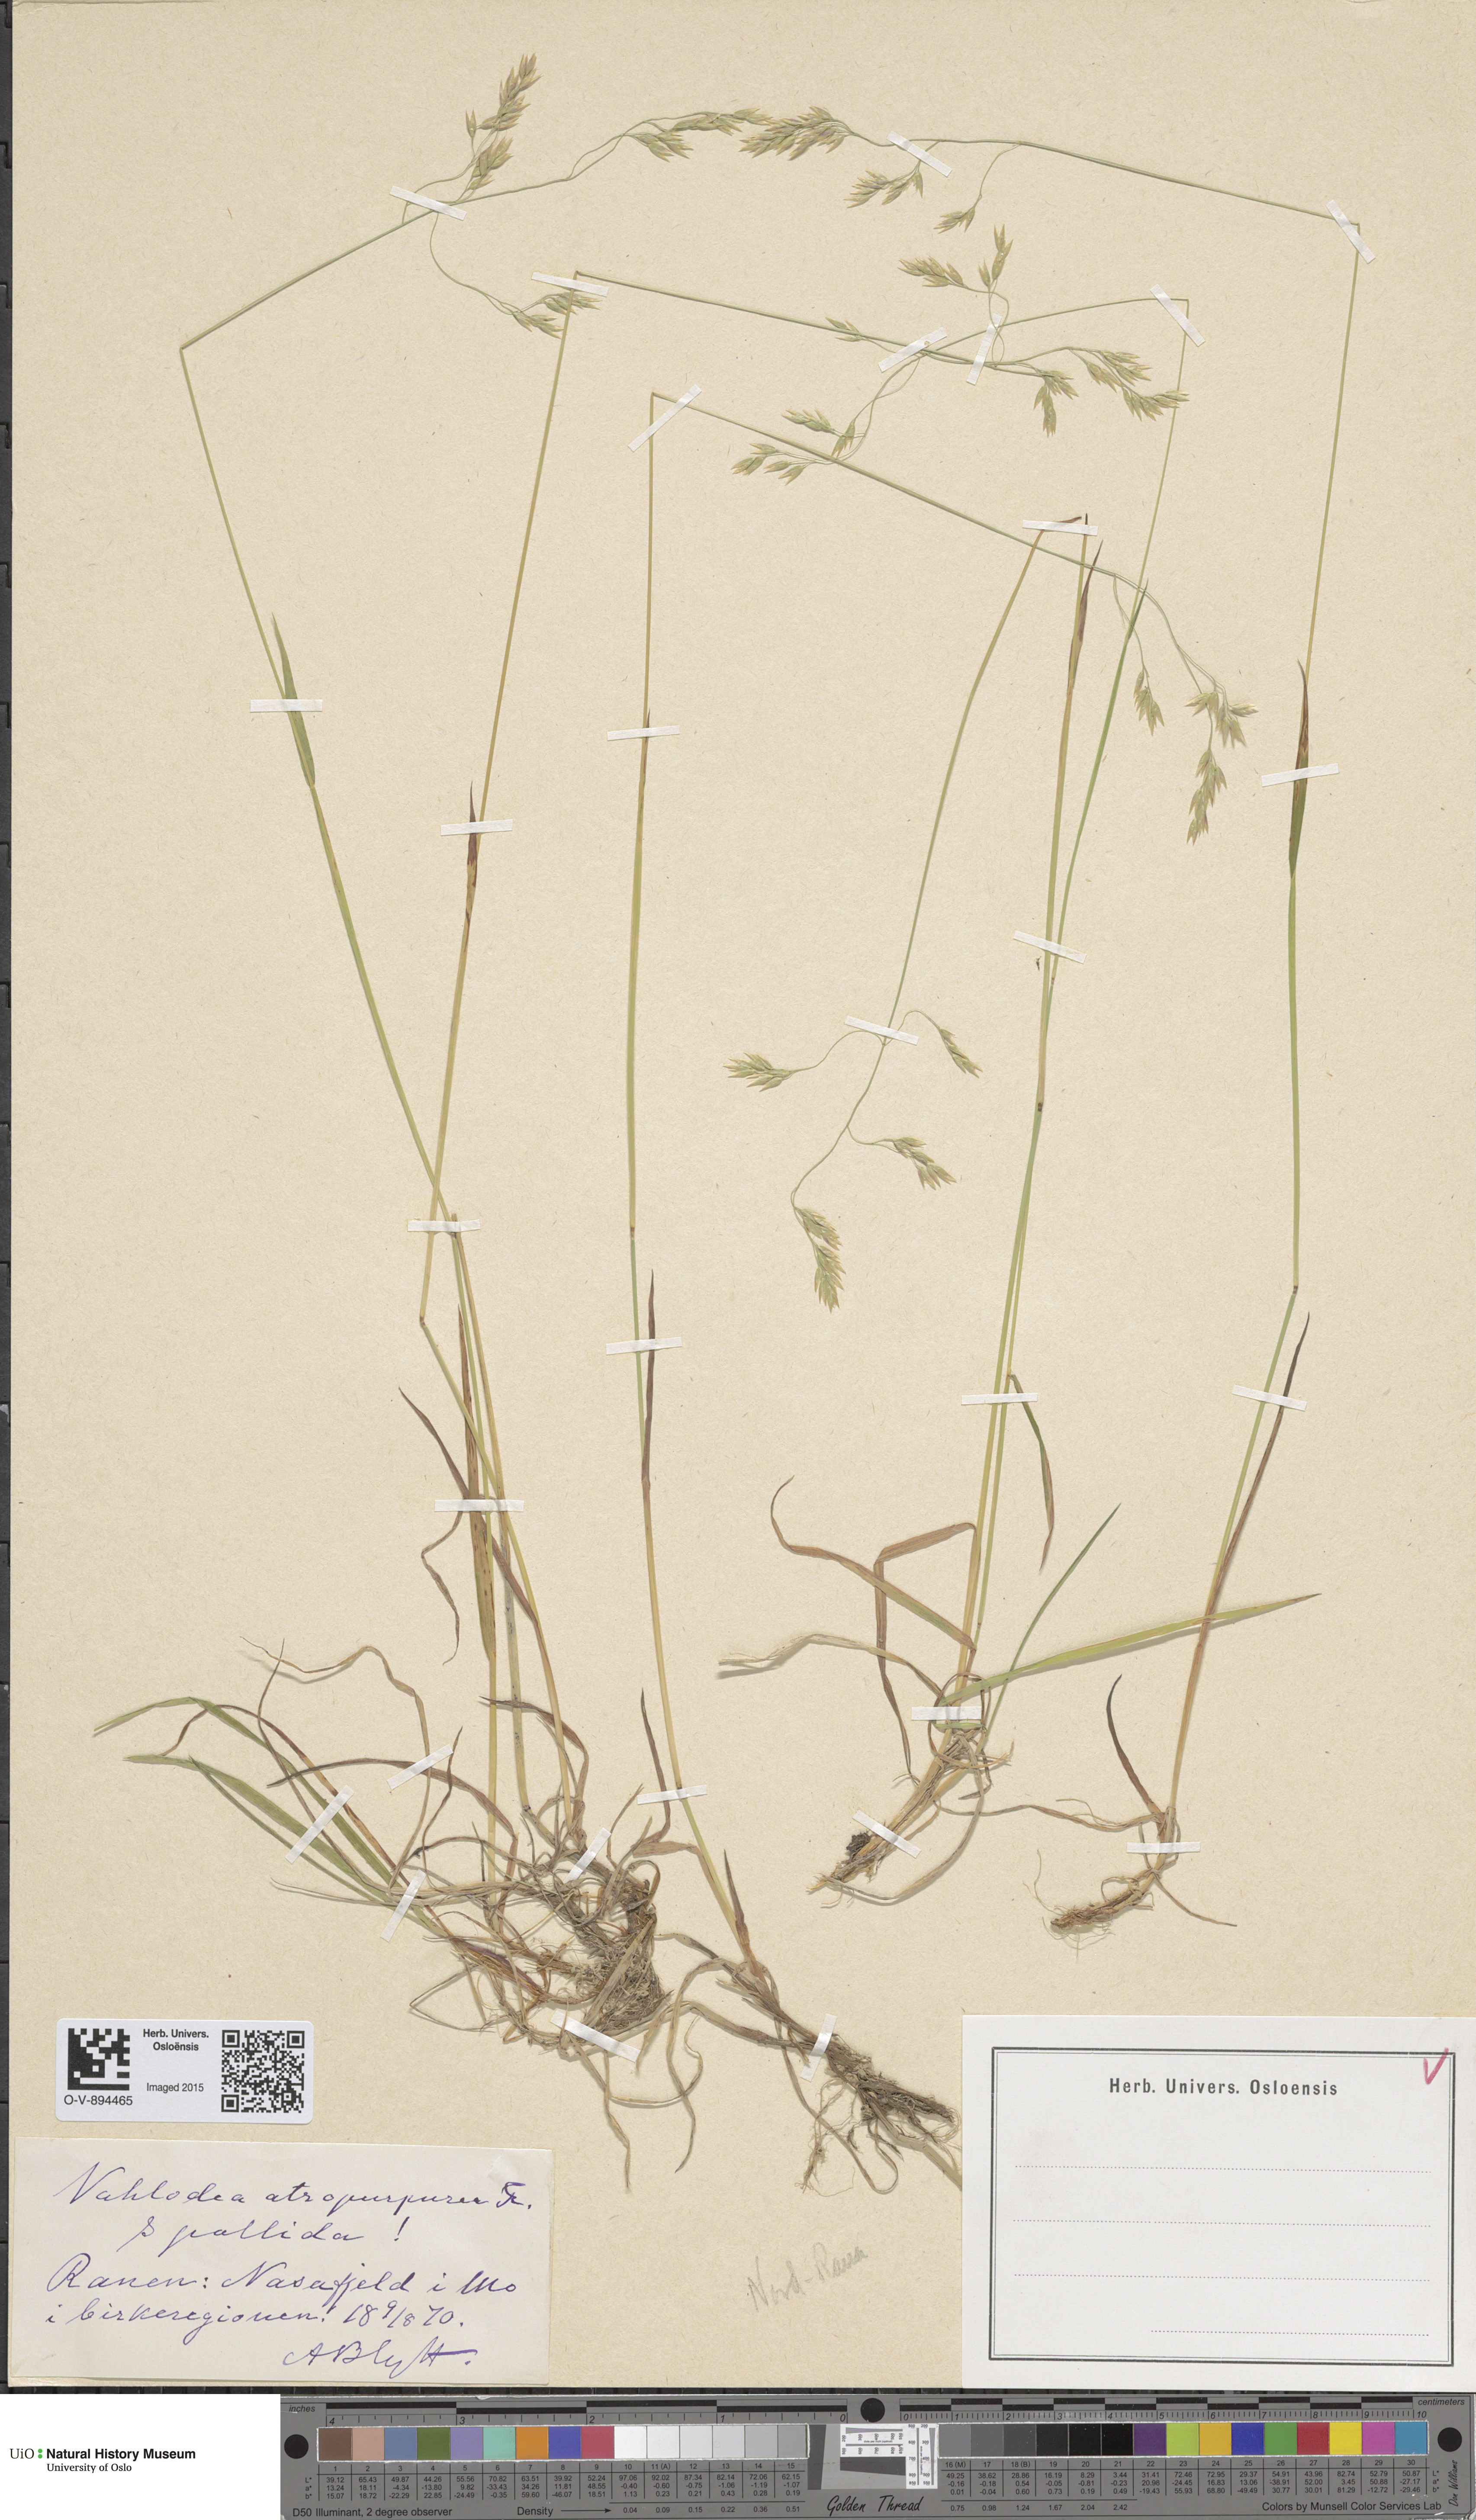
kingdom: Plantae
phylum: Tracheophyta
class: Liliopsida
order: Poales
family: Poaceae
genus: Vahlodea
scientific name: Vahlodea atropurpurea
